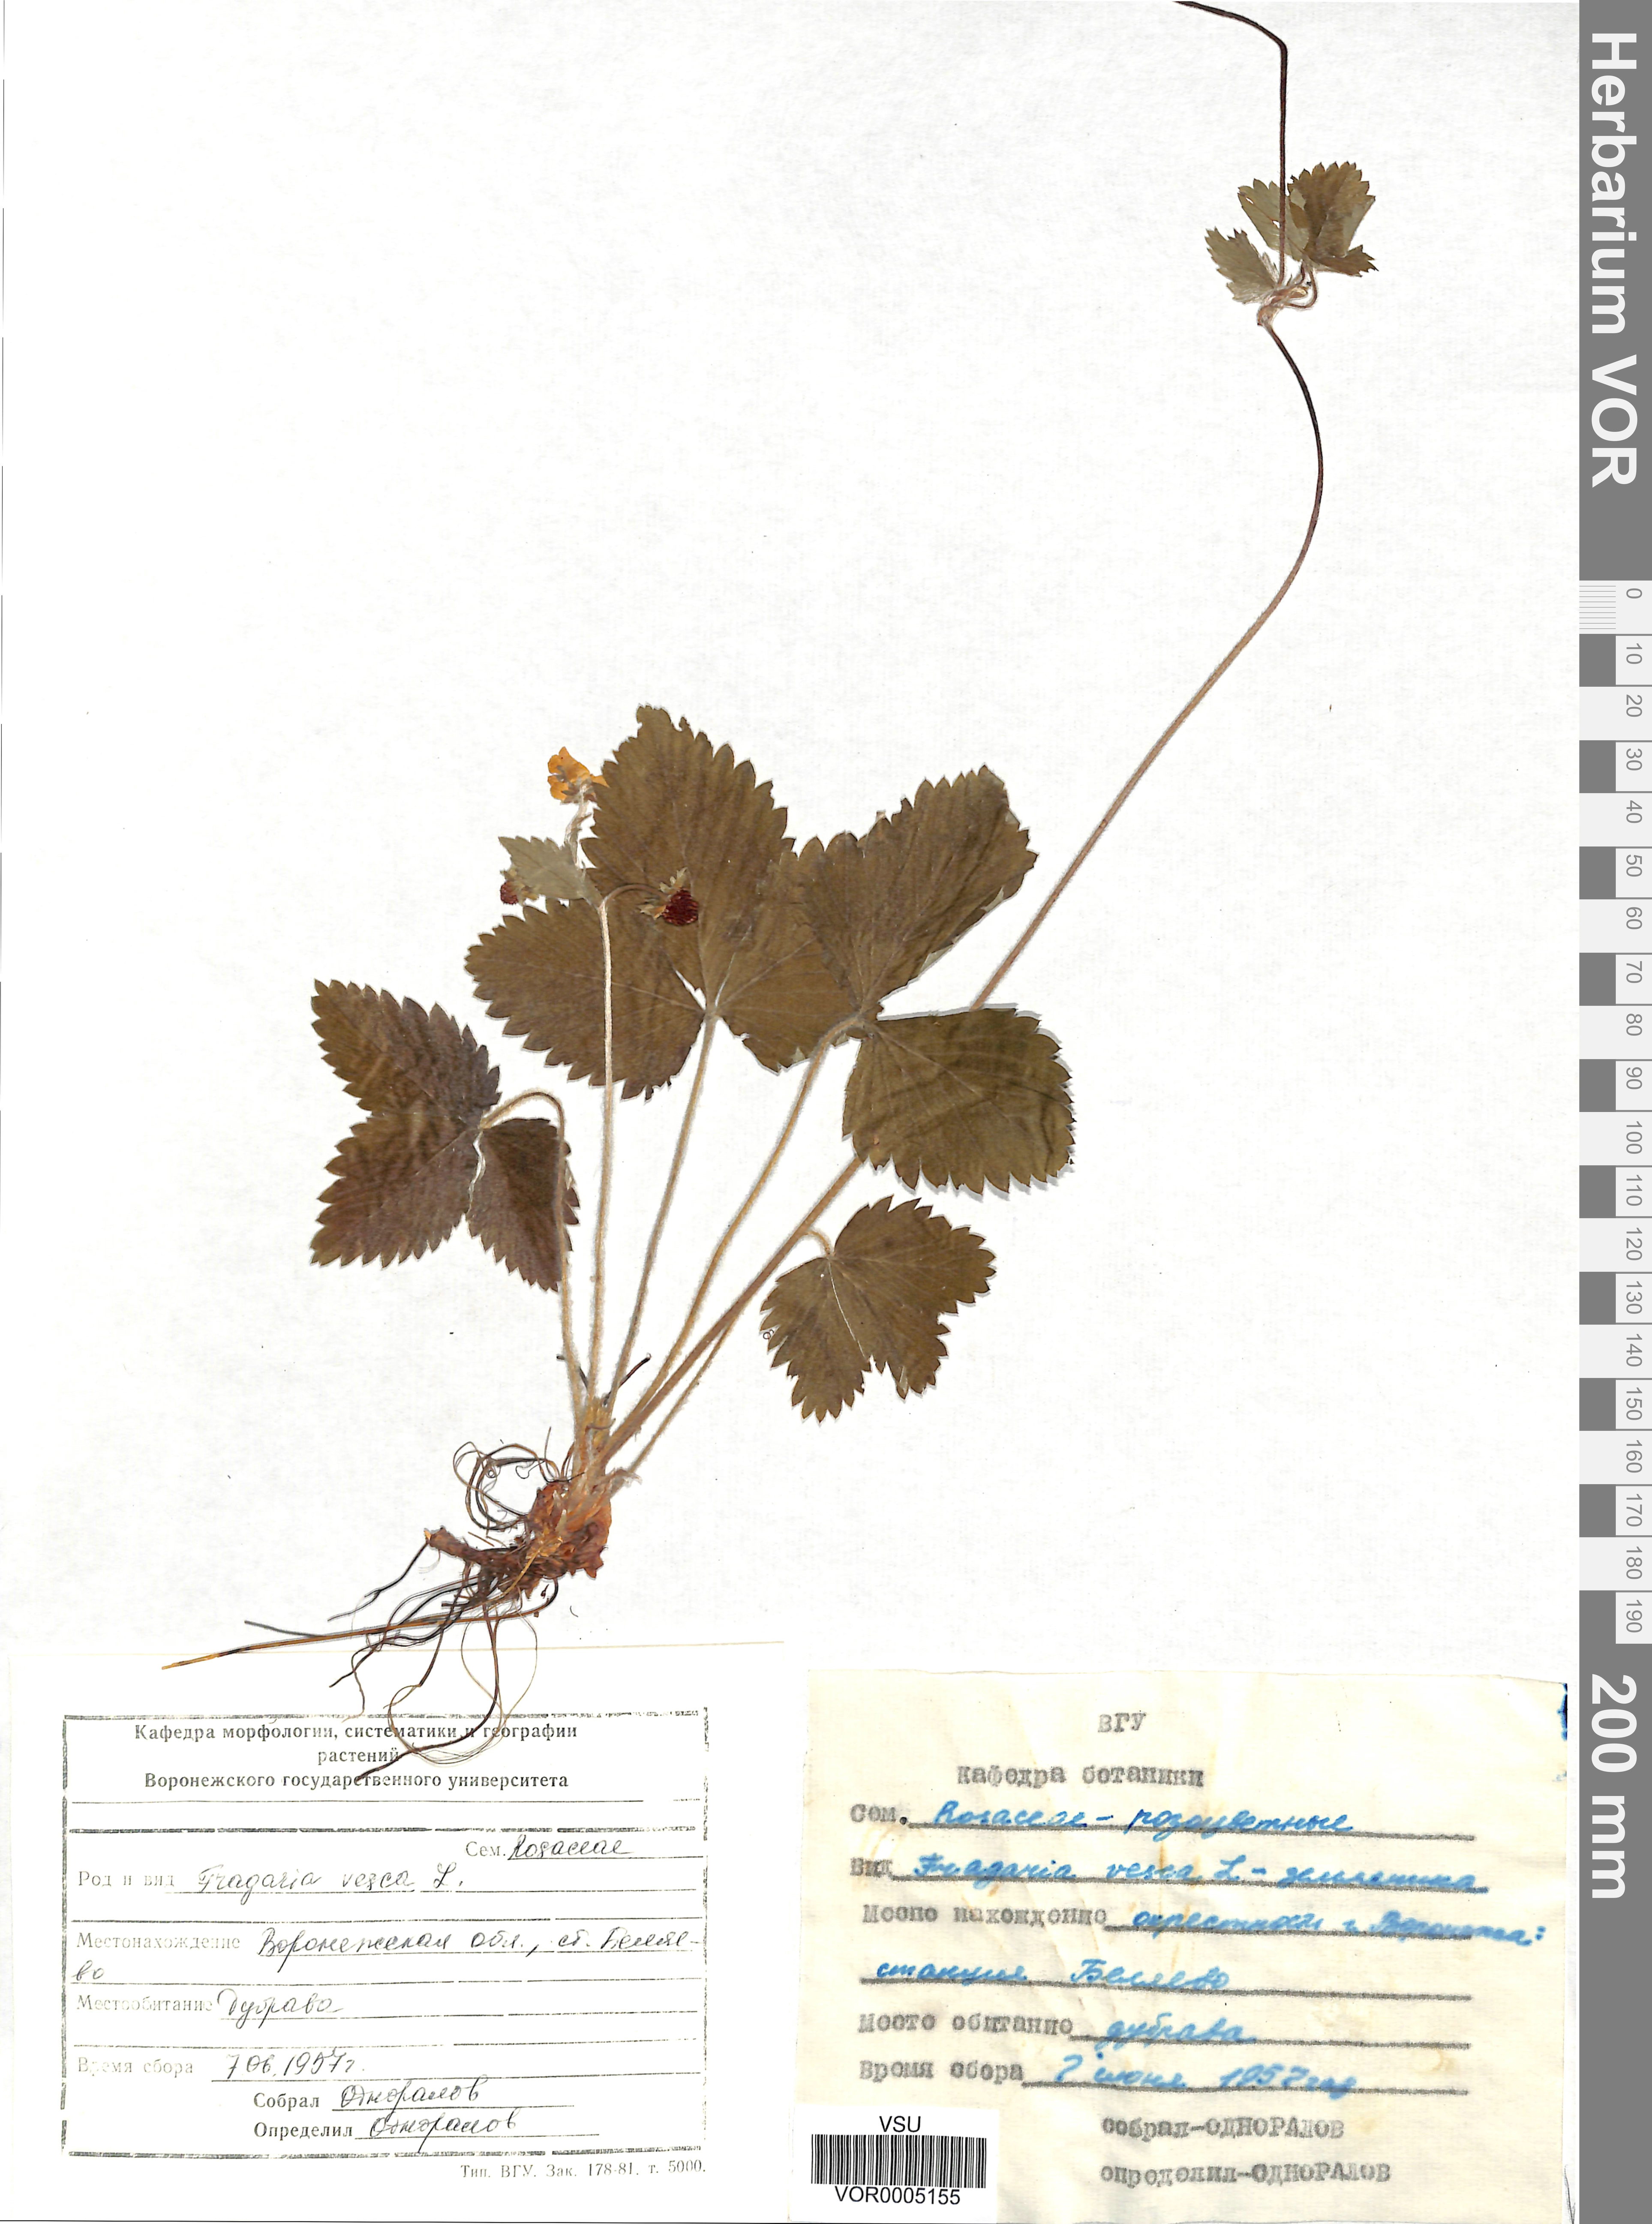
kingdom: Plantae
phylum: Tracheophyta
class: Magnoliopsida
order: Rosales
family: Rosaceae
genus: Fragaria
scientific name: Fragaria vesca
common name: Wild strawberry
